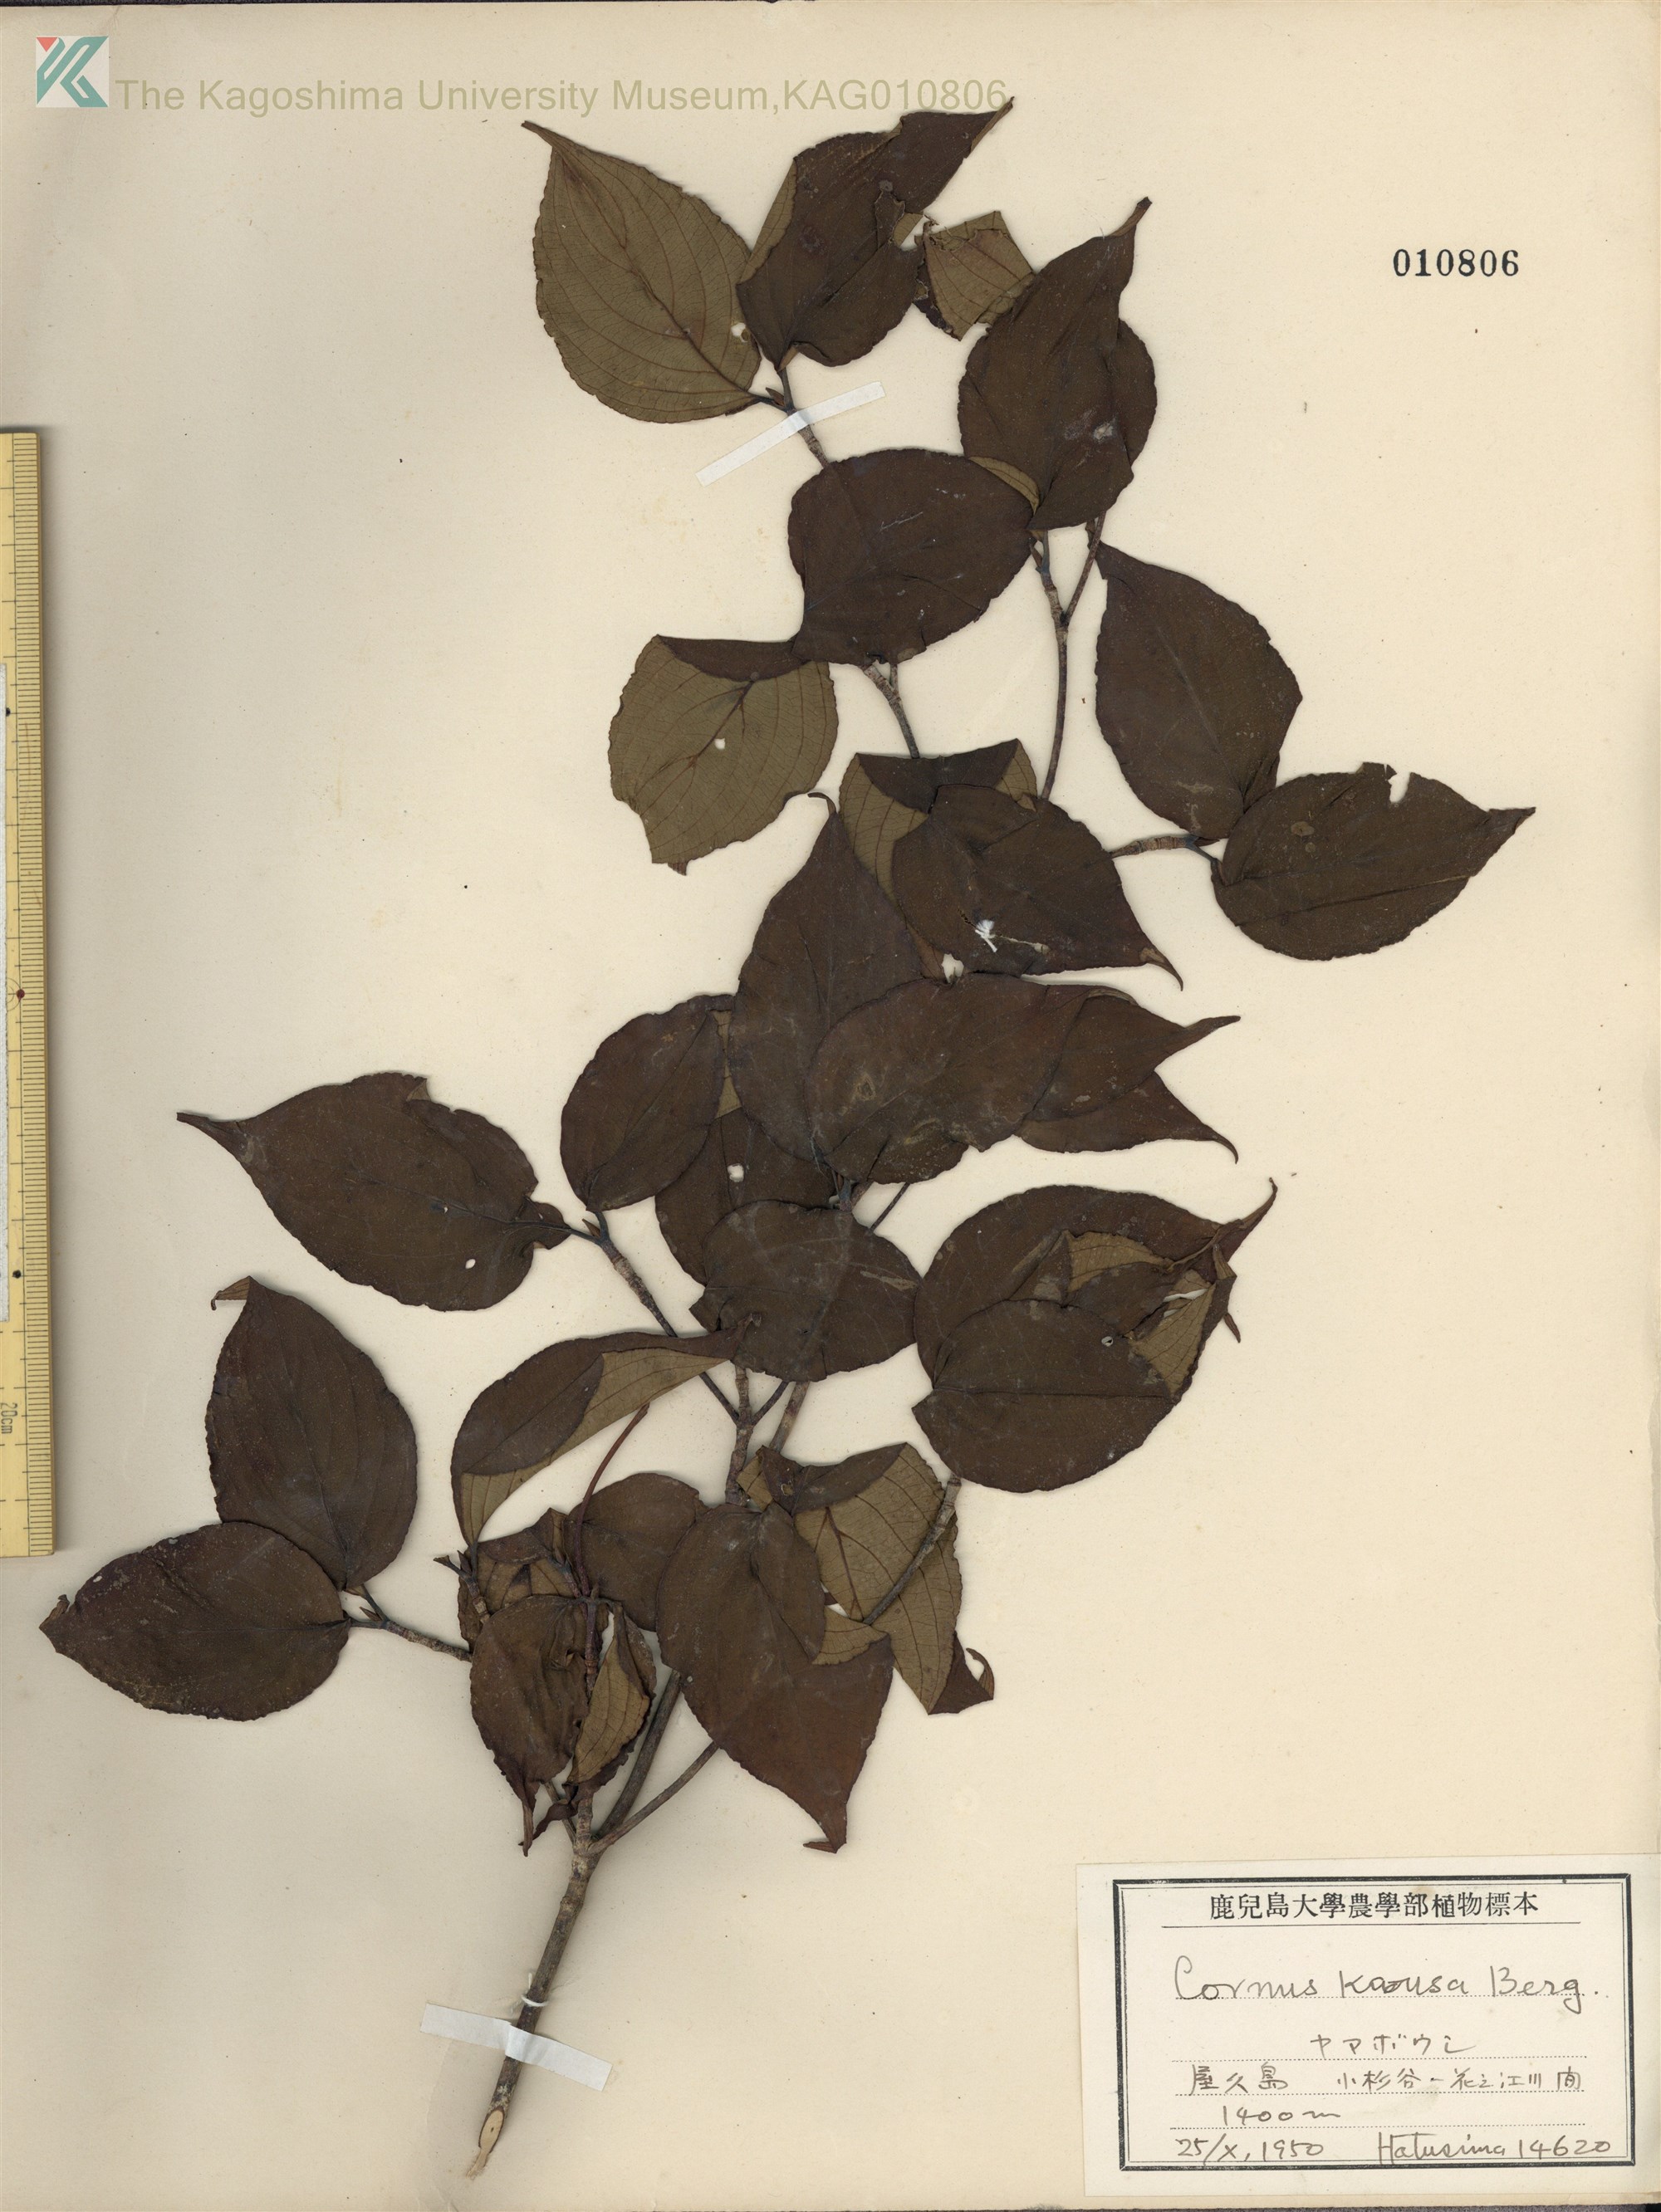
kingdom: Plantae
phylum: Tracheophyta
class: Magnoliopsida
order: Cornales
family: Cornaceae
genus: Cornus
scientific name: Cornus kousa
